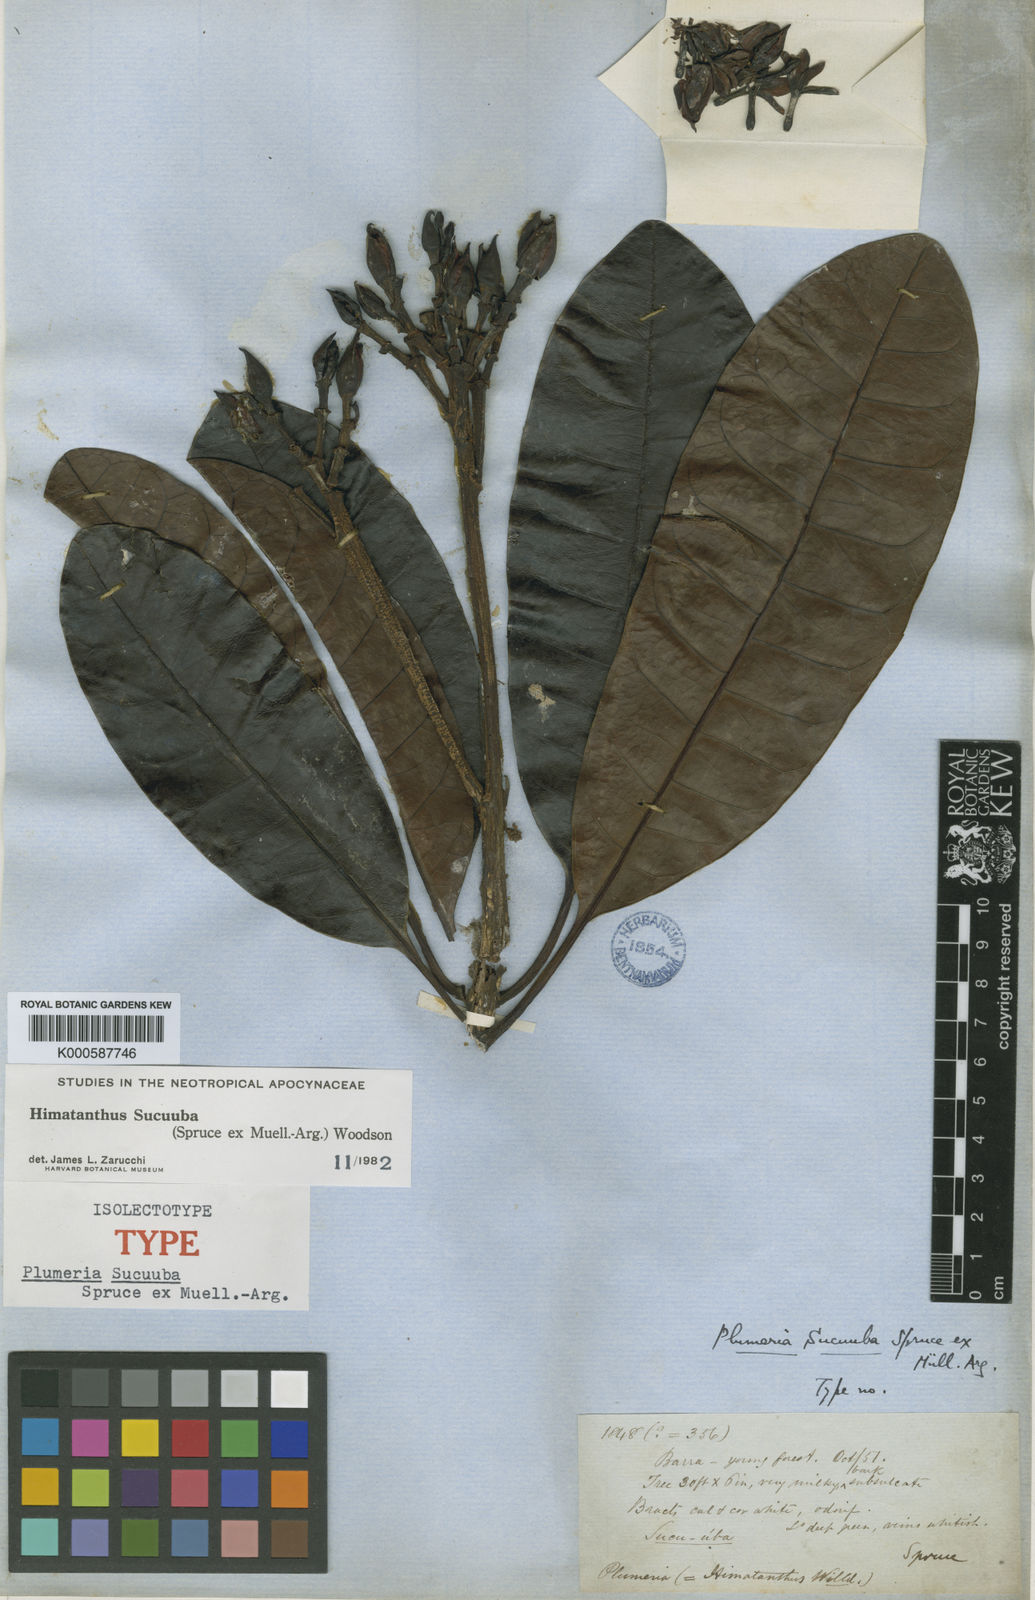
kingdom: Plantae
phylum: Tracheophyta
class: Magnoliopsida
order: Gentianales
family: Apocynaceae
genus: Himatanthus
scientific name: Himatanthus
